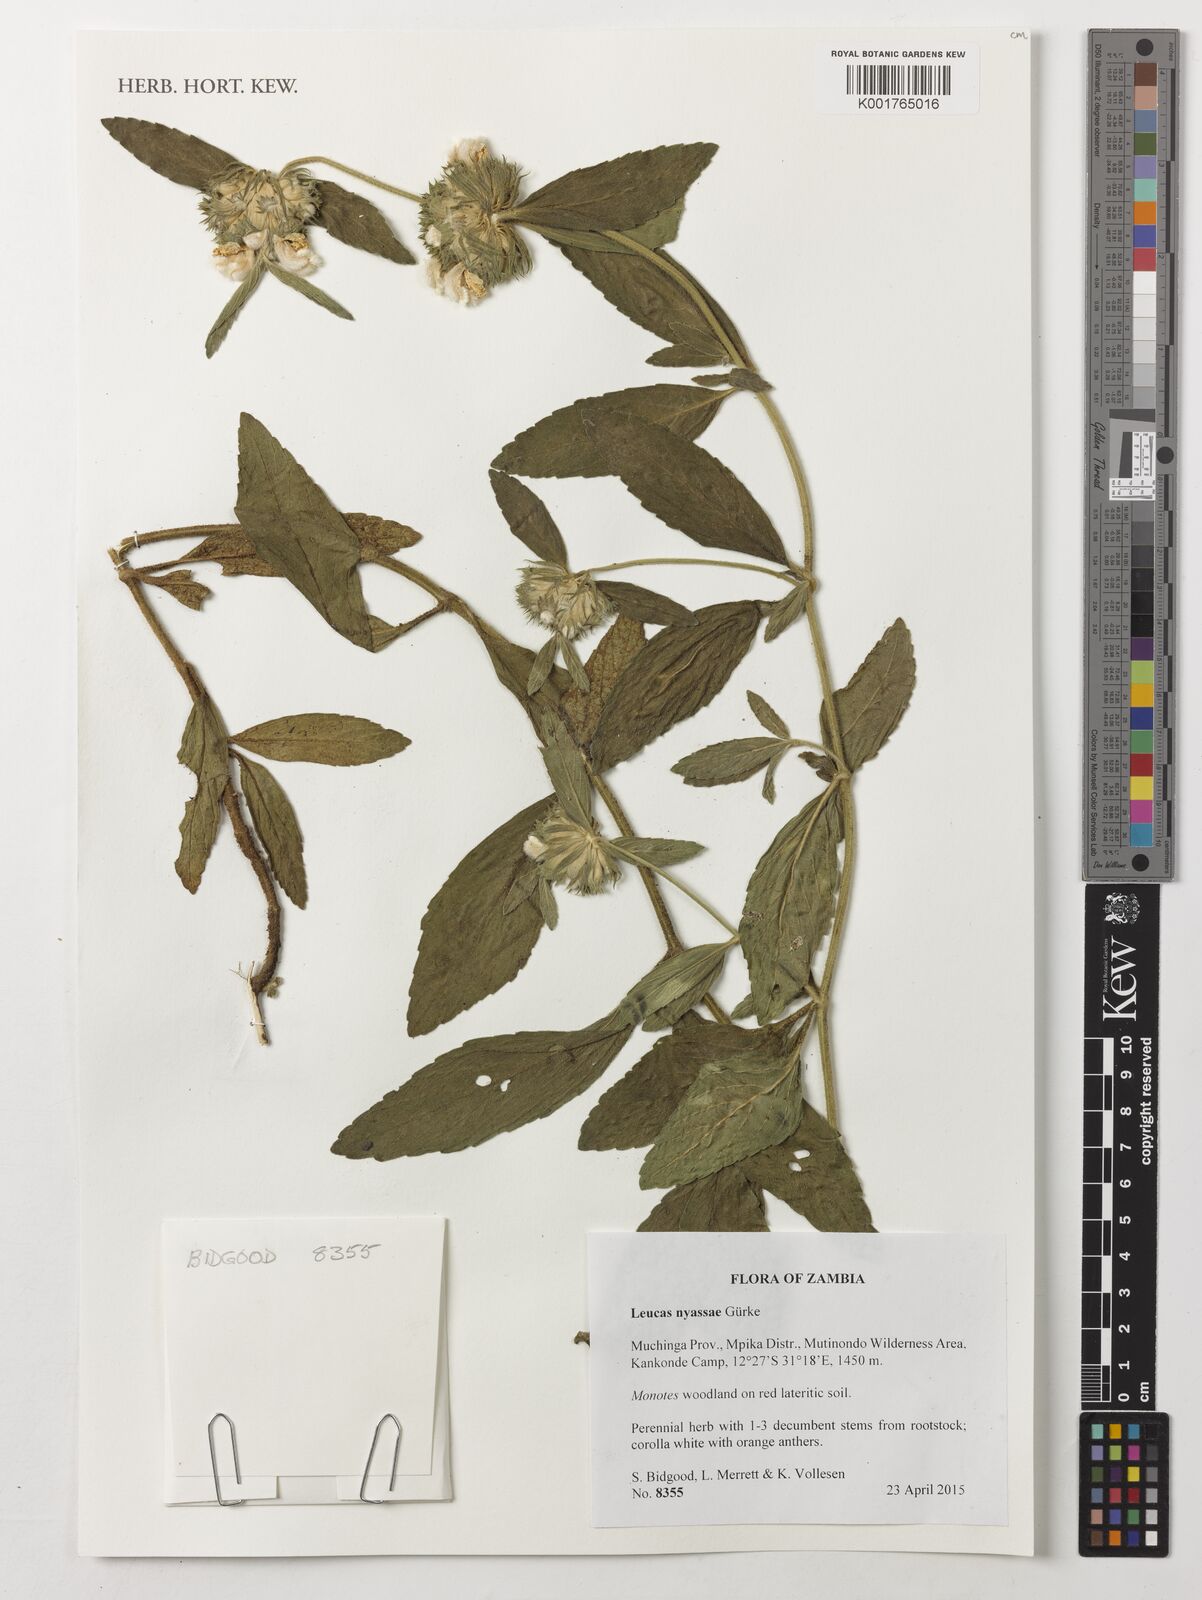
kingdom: Plantae
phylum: Tracheophyta
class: Magnoliopsida
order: Lamiales
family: Lamiaceae
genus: Leucas
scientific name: Leucas nyassae
